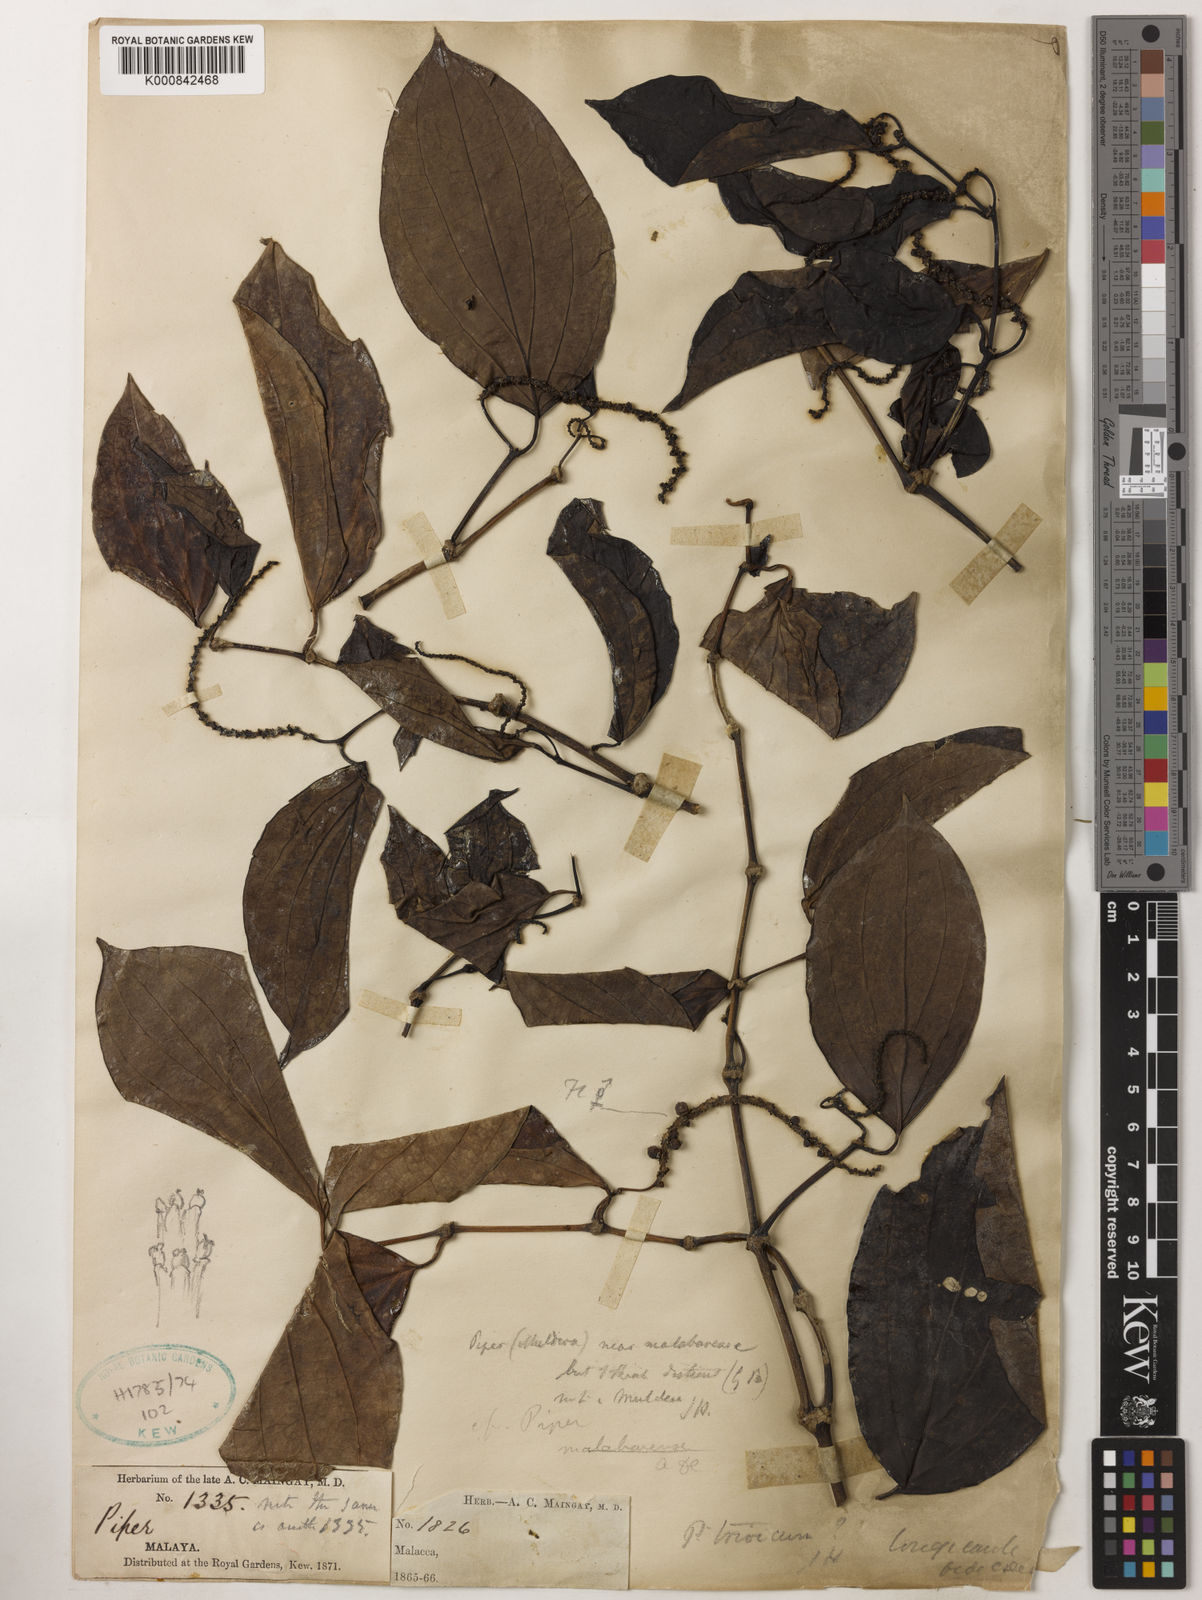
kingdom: Plantae
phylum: Tracheophyta
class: Magnoliopsida
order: Piperales
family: Piperaceae
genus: Piper
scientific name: Piper longicaule
